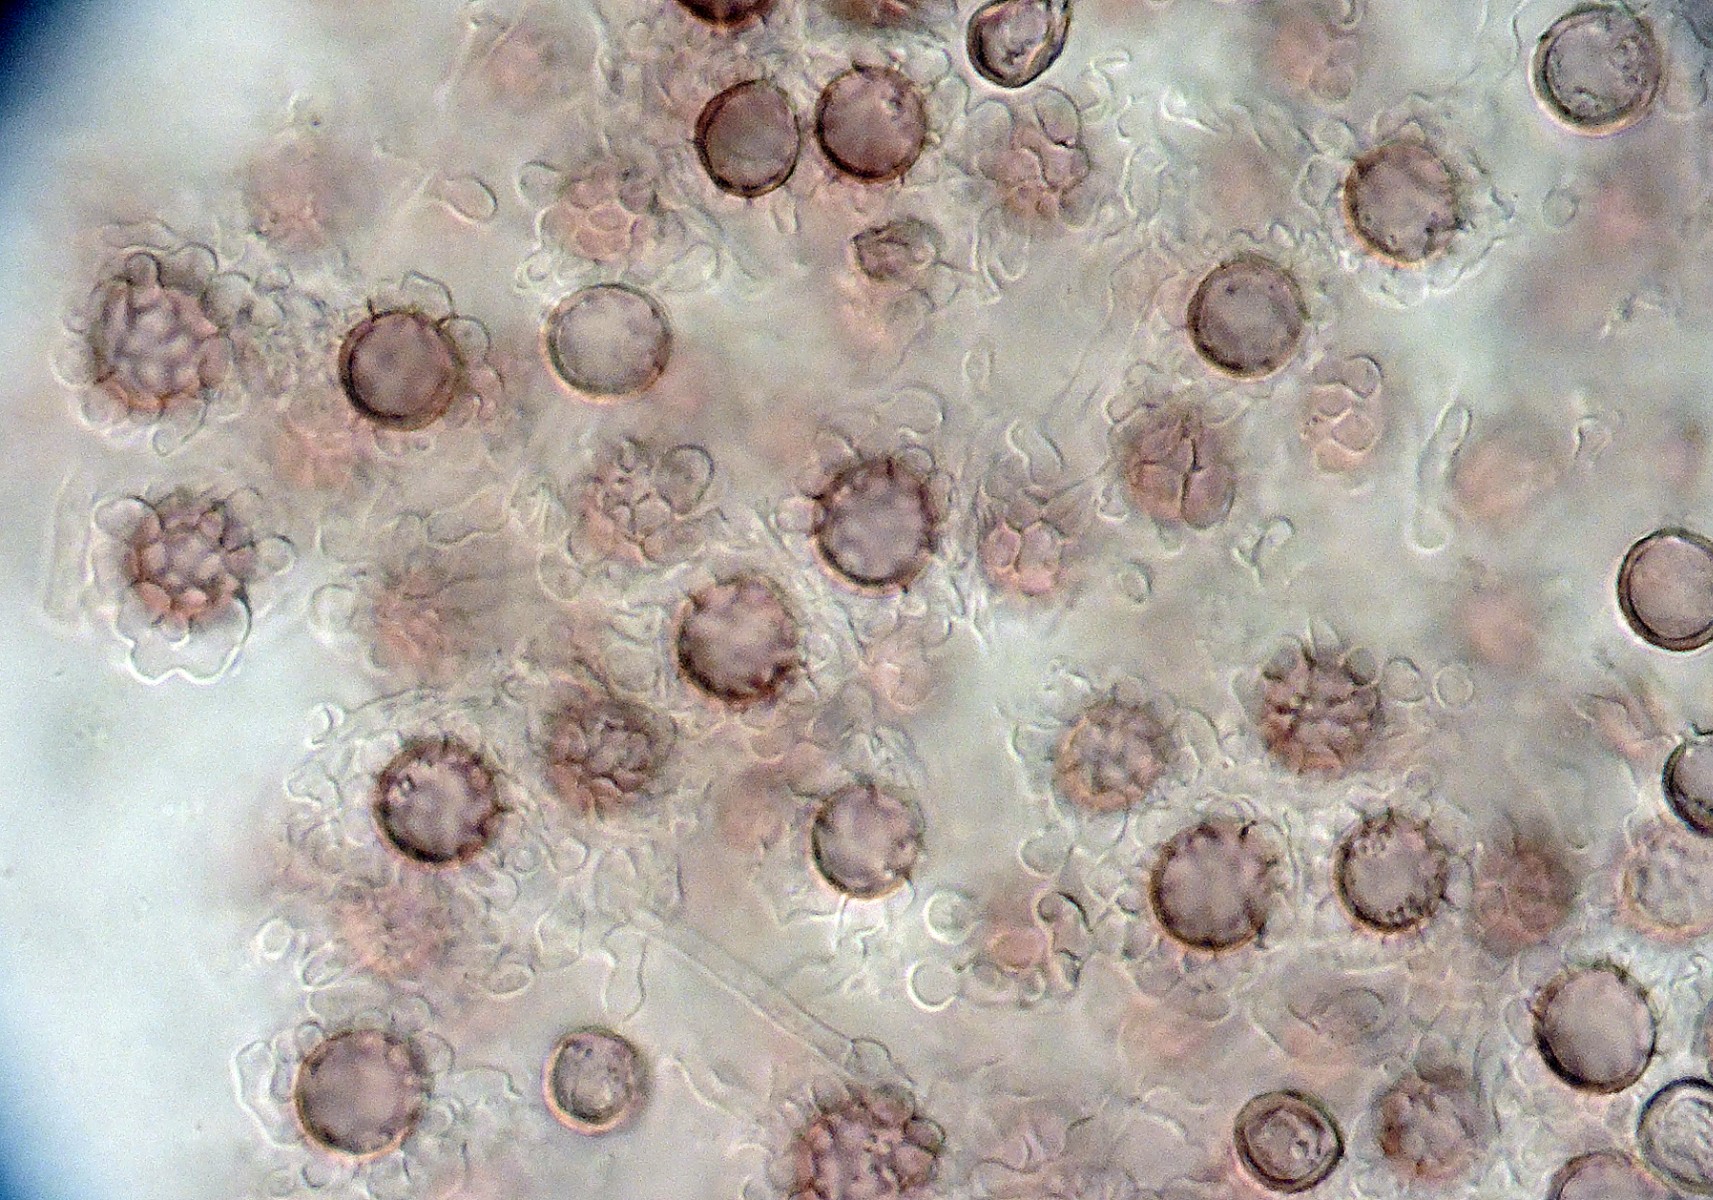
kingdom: Fungi
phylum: Basidiomycota
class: Agaricomycetes
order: Boletales
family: Sclerodermataceae
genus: Scleroderma
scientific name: Scleroderma bovista
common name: bovist-bruskbold
